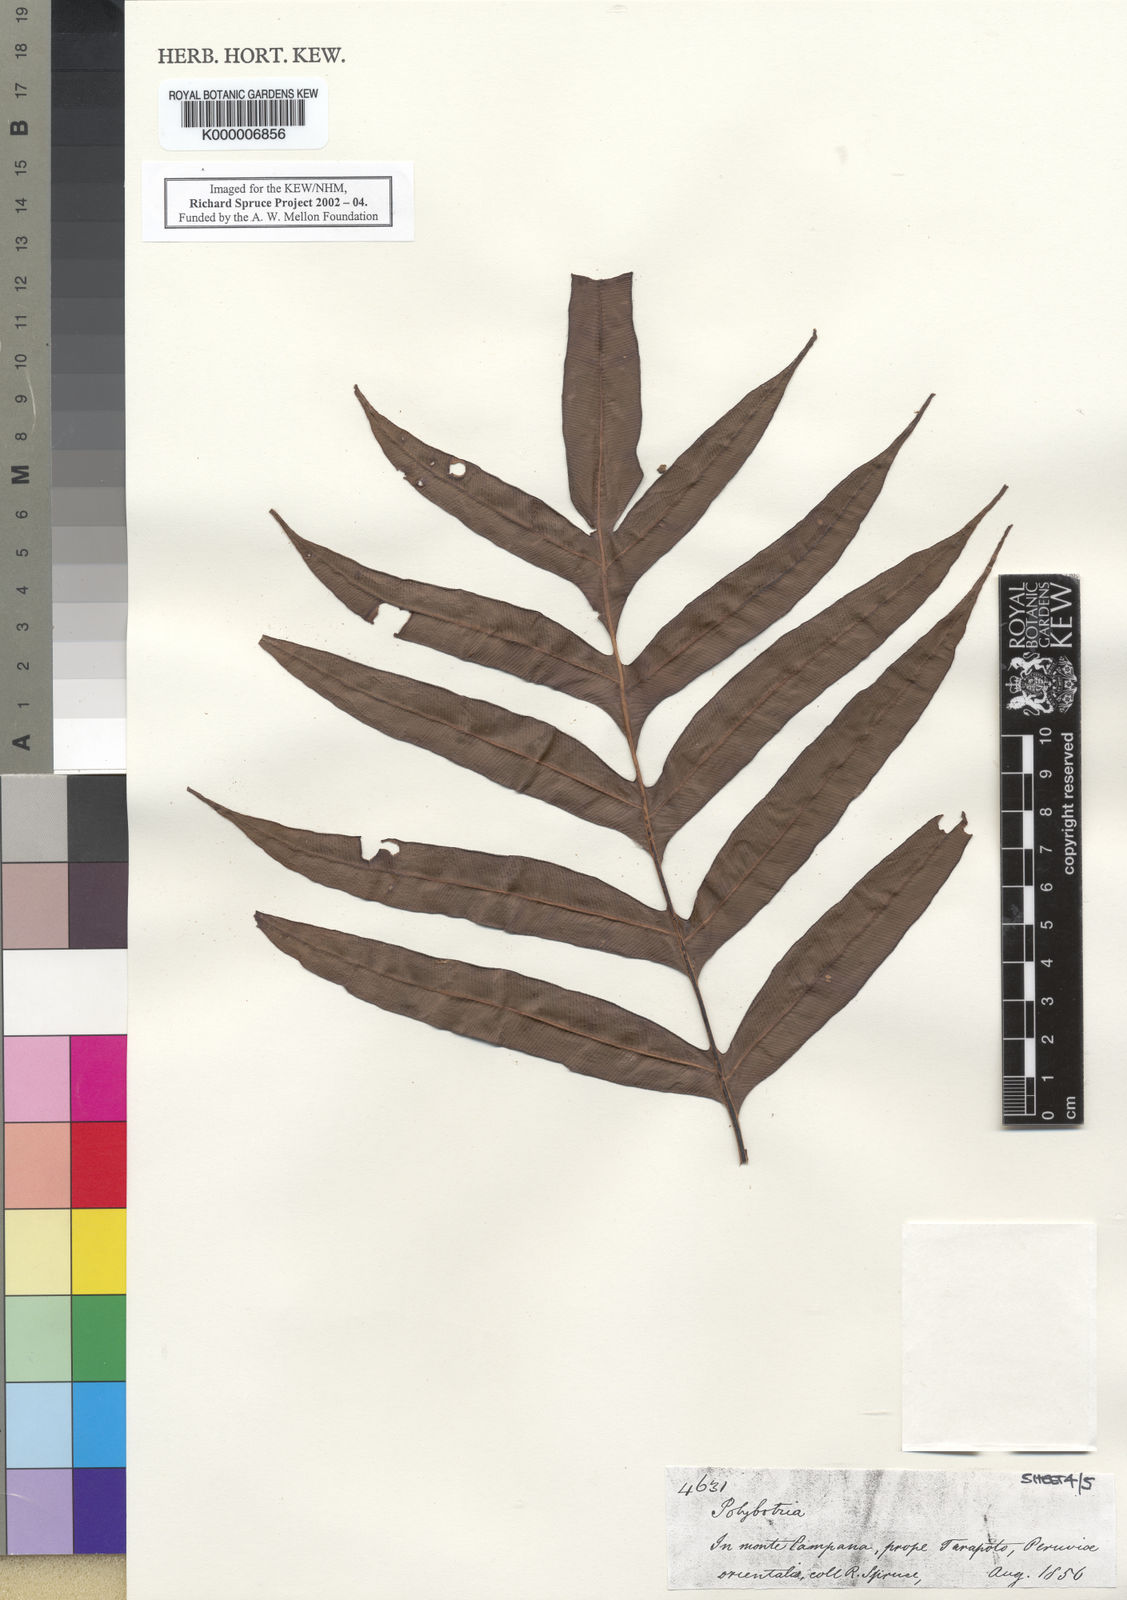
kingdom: Plantae
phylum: Tracheophyta
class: Polypodiopsida
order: Polypodiales
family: Dryopteridaceae
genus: Polybotrya
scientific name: Polybotrya
